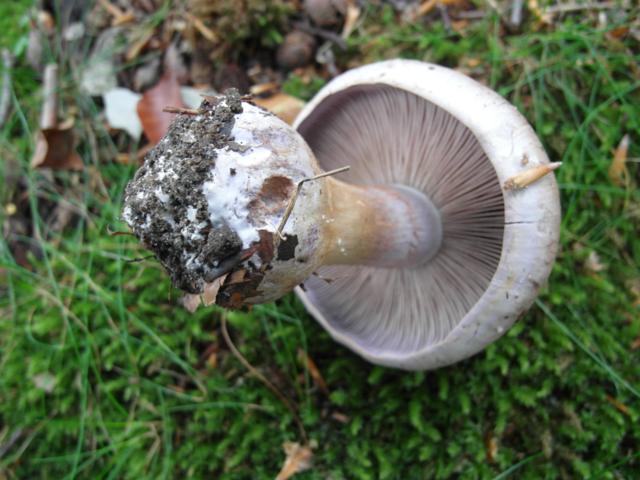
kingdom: Fungi
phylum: Basidiomycota
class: Agaricomycetes
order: Agaricales
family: Cortinariaceae
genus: Cortinarius
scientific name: Cortinarius largus
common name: violetrandet slørhat
